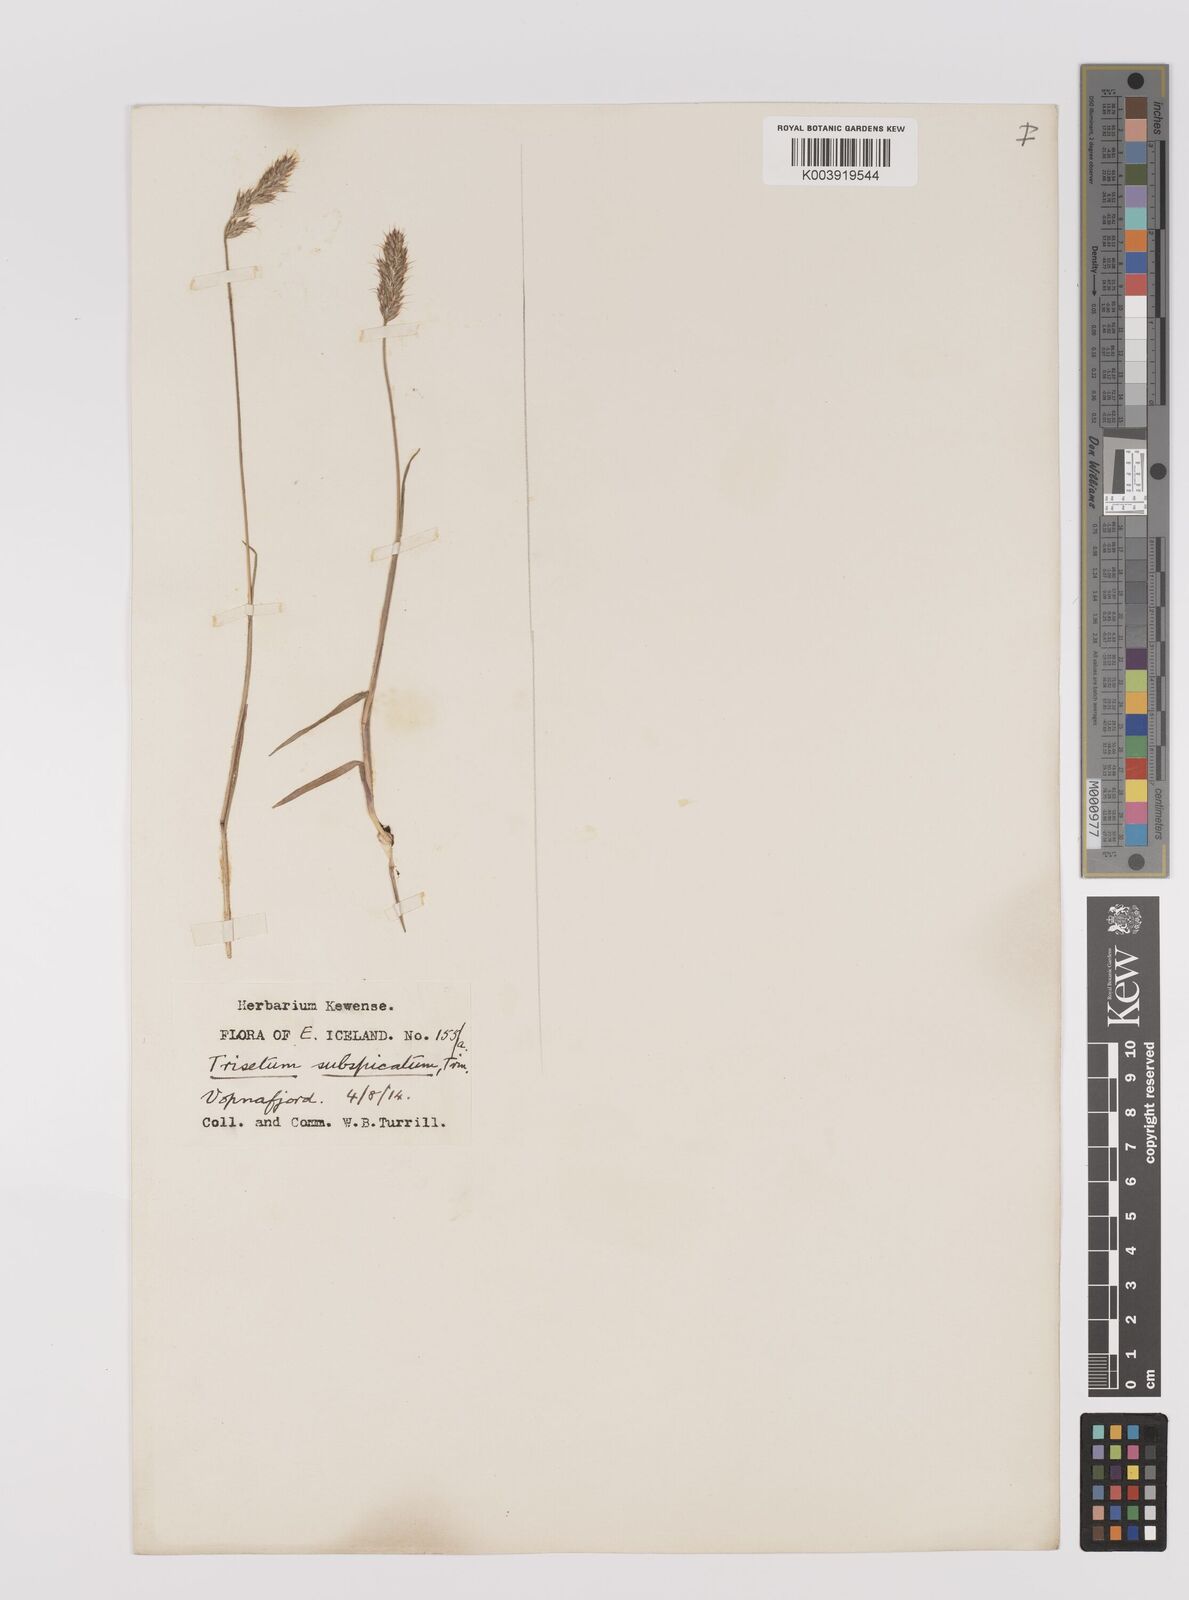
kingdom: Plantae
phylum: Tracheophyta
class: Liliopsida
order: Poales
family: Poaceae
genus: Koeleria
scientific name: Koeleria spicata
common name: Mountain trisetum
